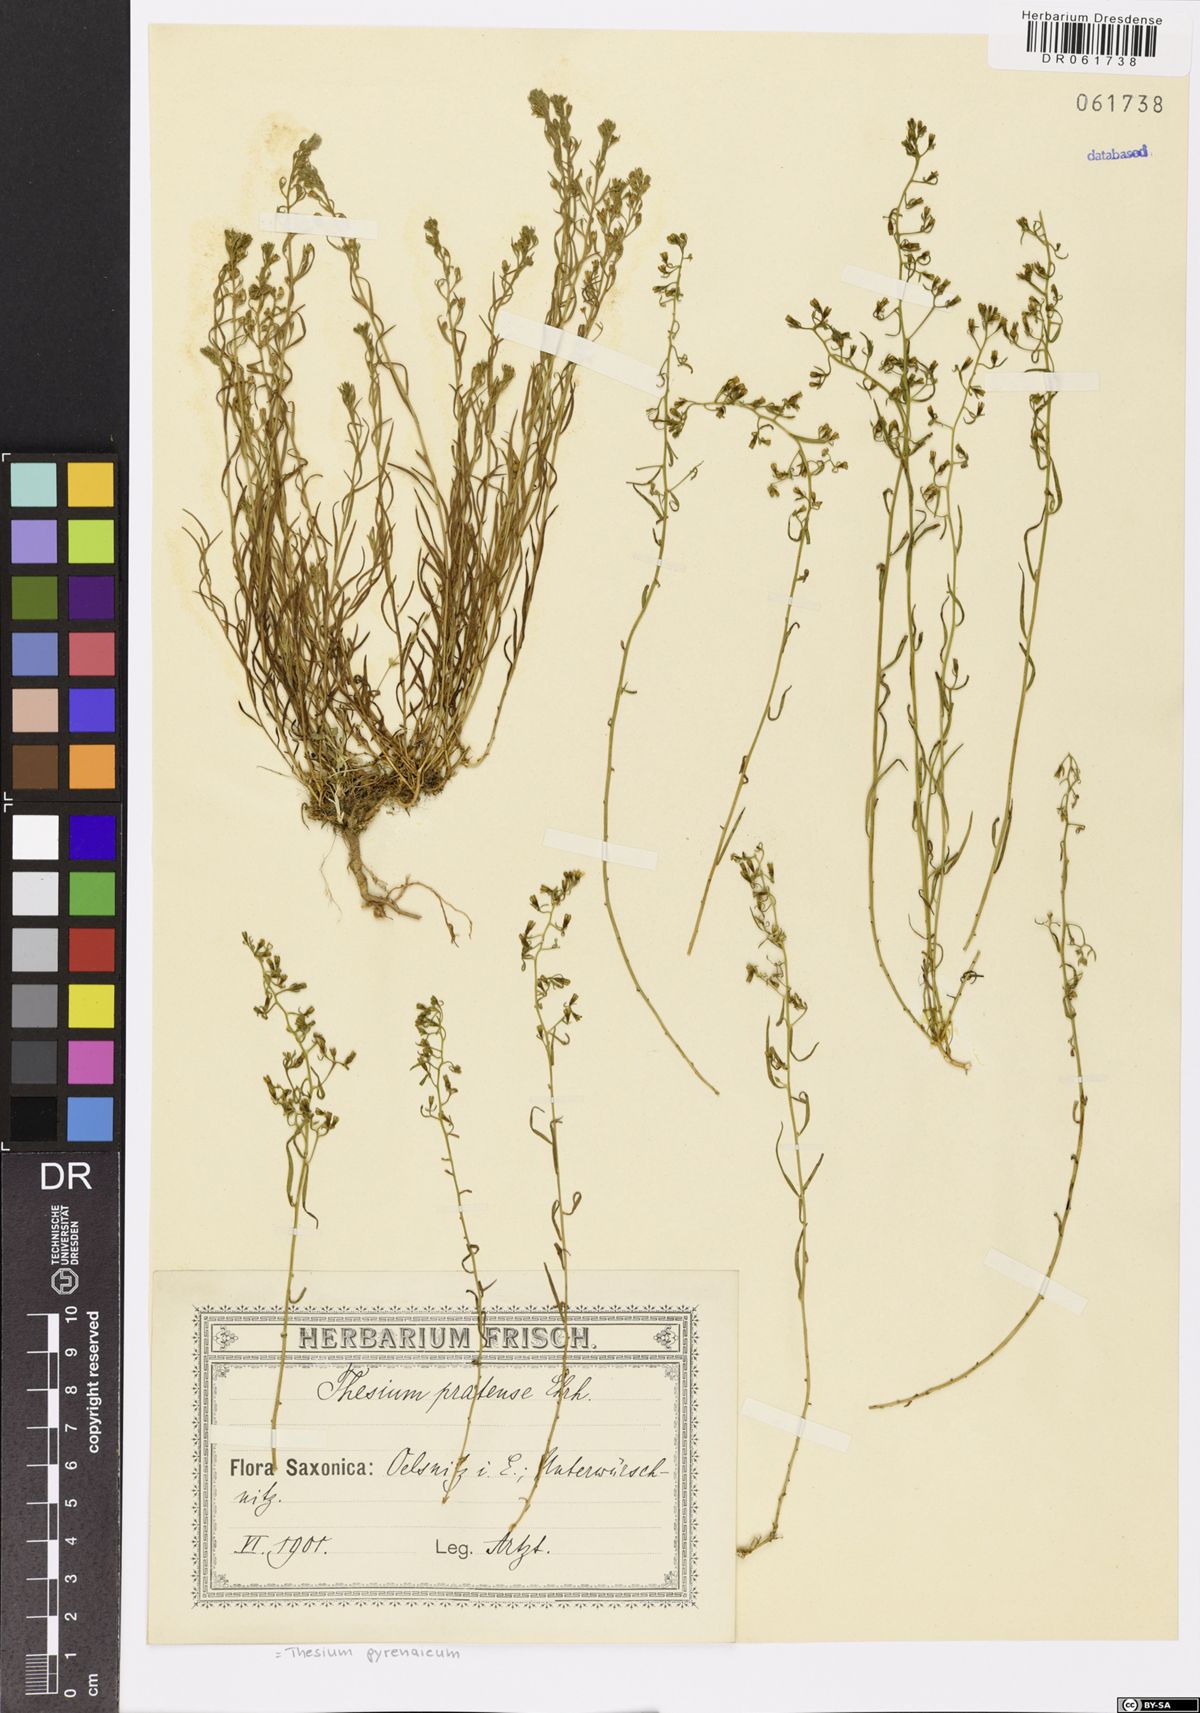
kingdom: Plantae
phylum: Tracheophyta
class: Magnoliopsida
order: Santalales
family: Thesiaceae
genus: Thesium
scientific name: Thesium pyrenaicum
